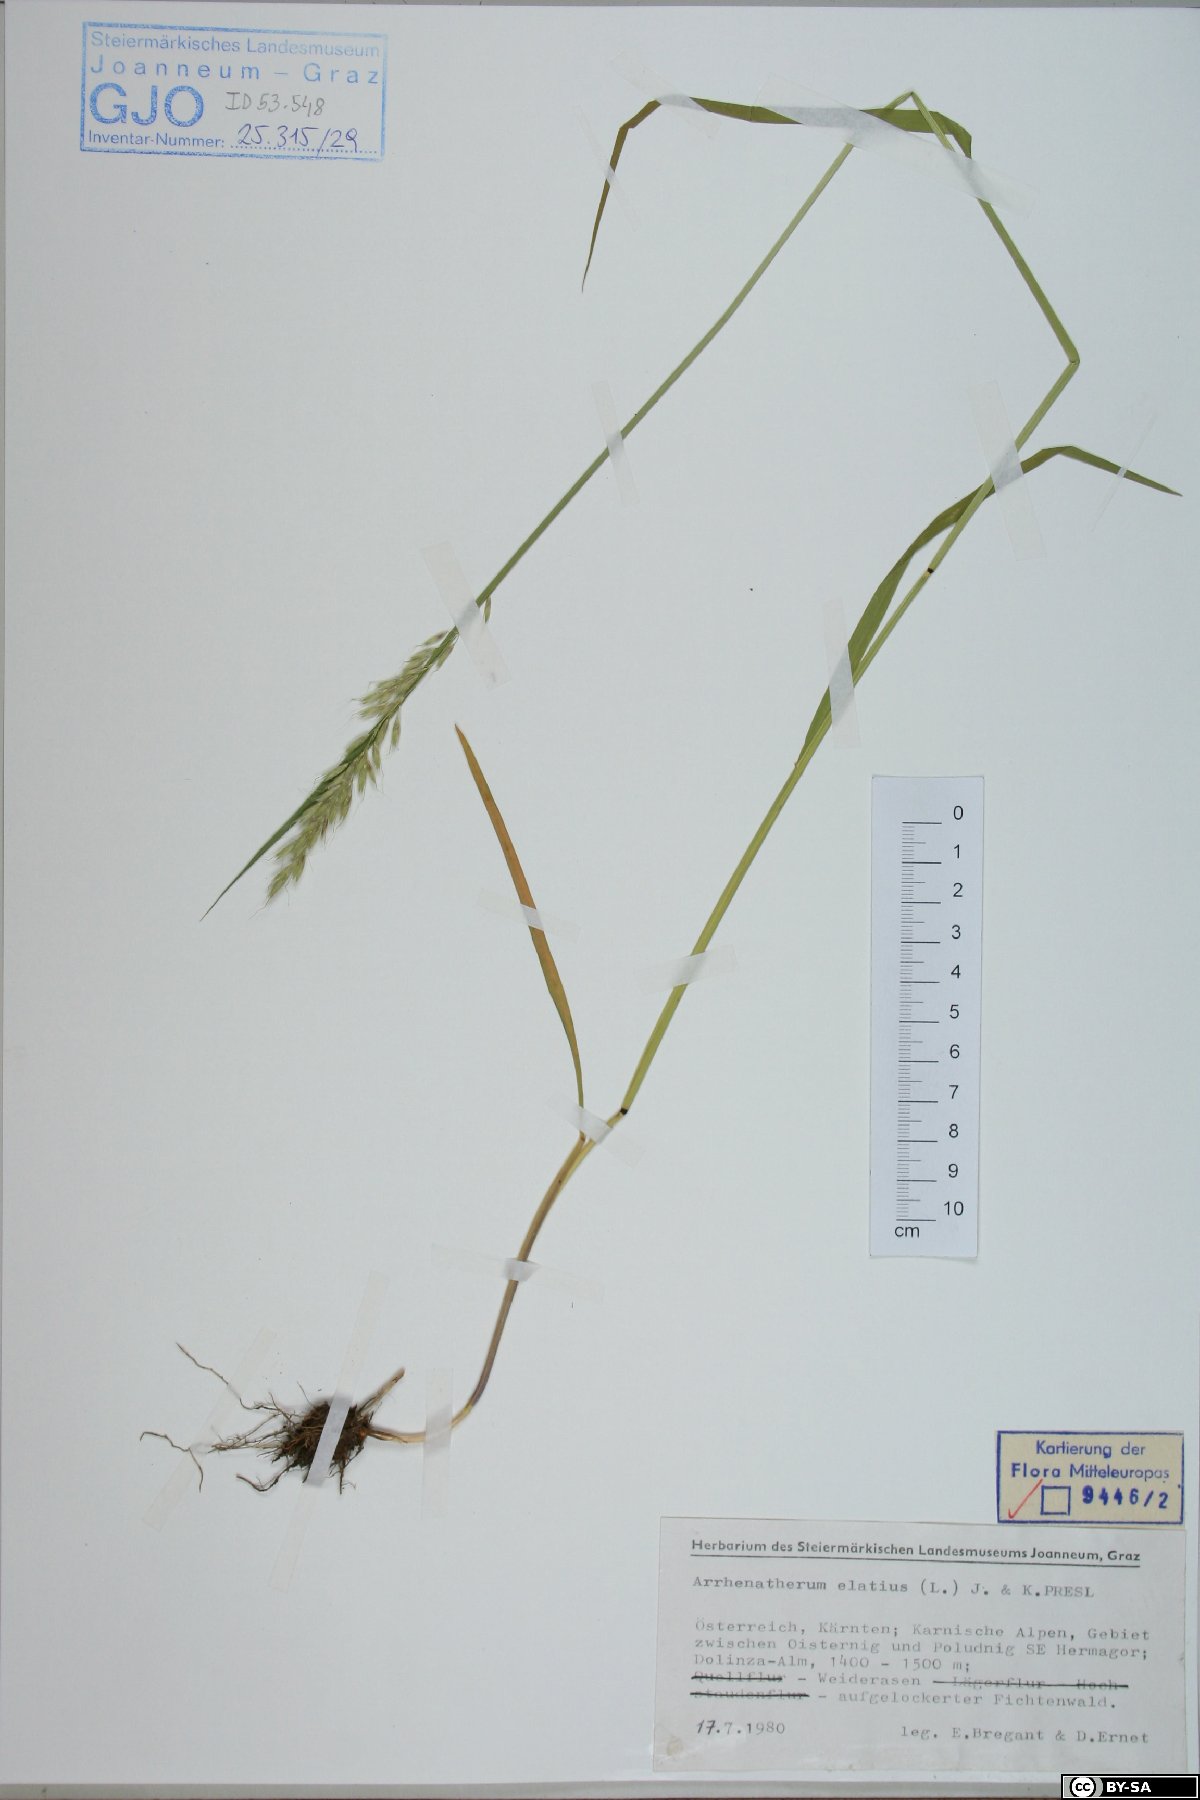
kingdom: Plantae
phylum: Tracheophyta
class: Liliopsida
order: Poales
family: Poaceae
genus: Arrhenatherum
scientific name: Arrhenatherum elatius
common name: Tall oatgrass
